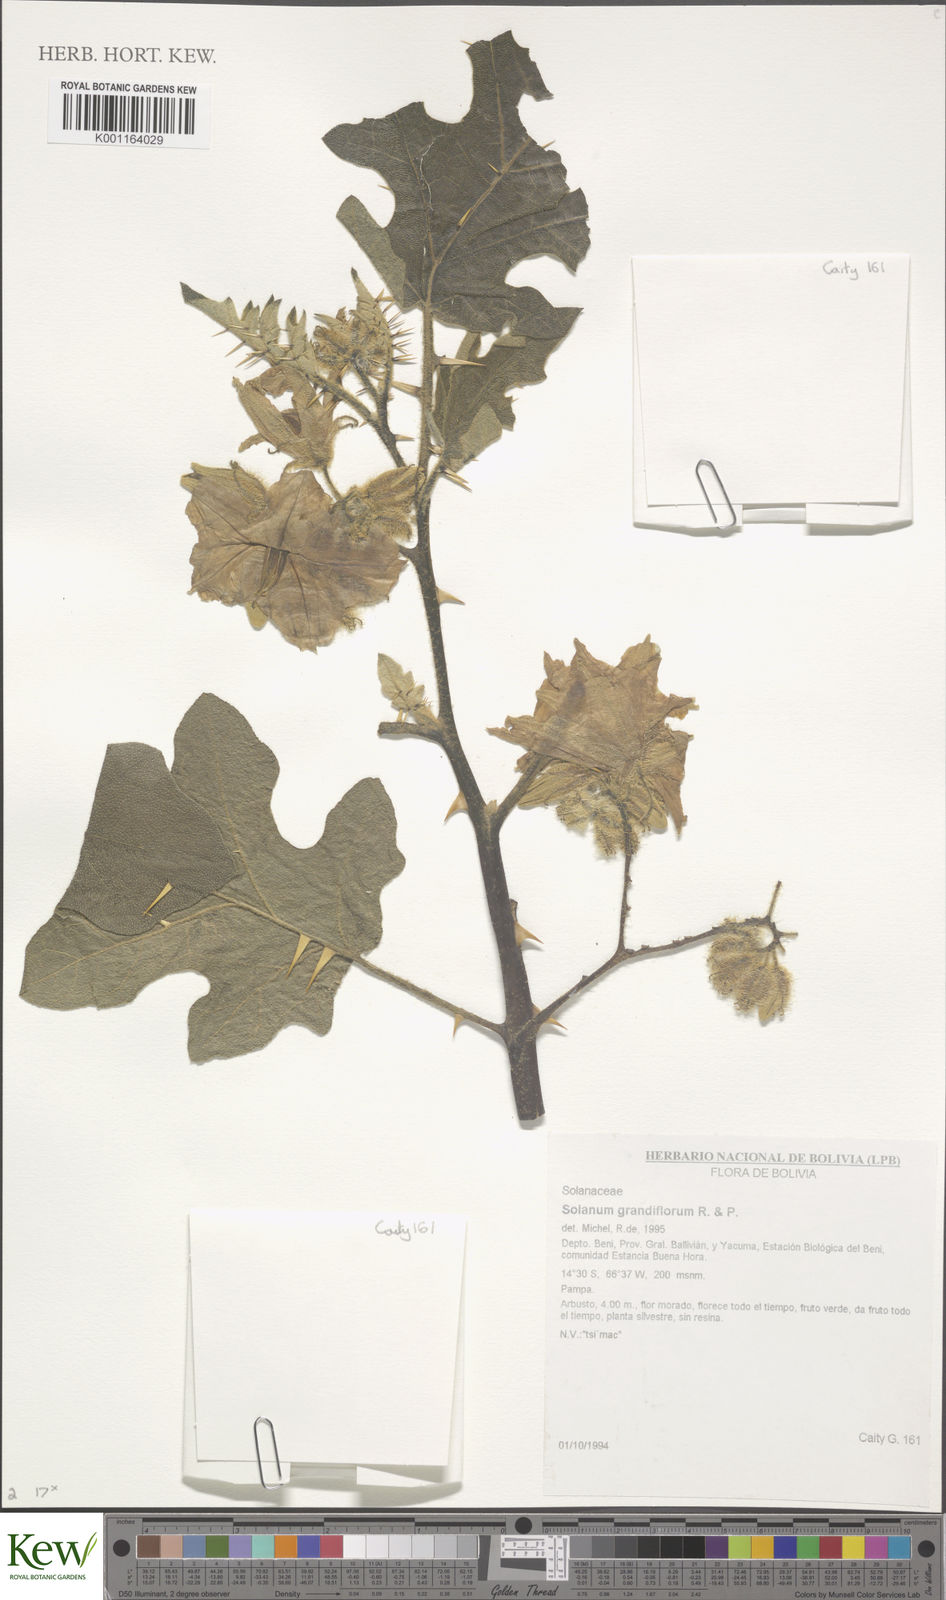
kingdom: Plantae
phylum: Tracheophyta
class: Magnoliopsida
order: Solanales
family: Solanaceae
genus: Solanum
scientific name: Solanum grandiflorum
